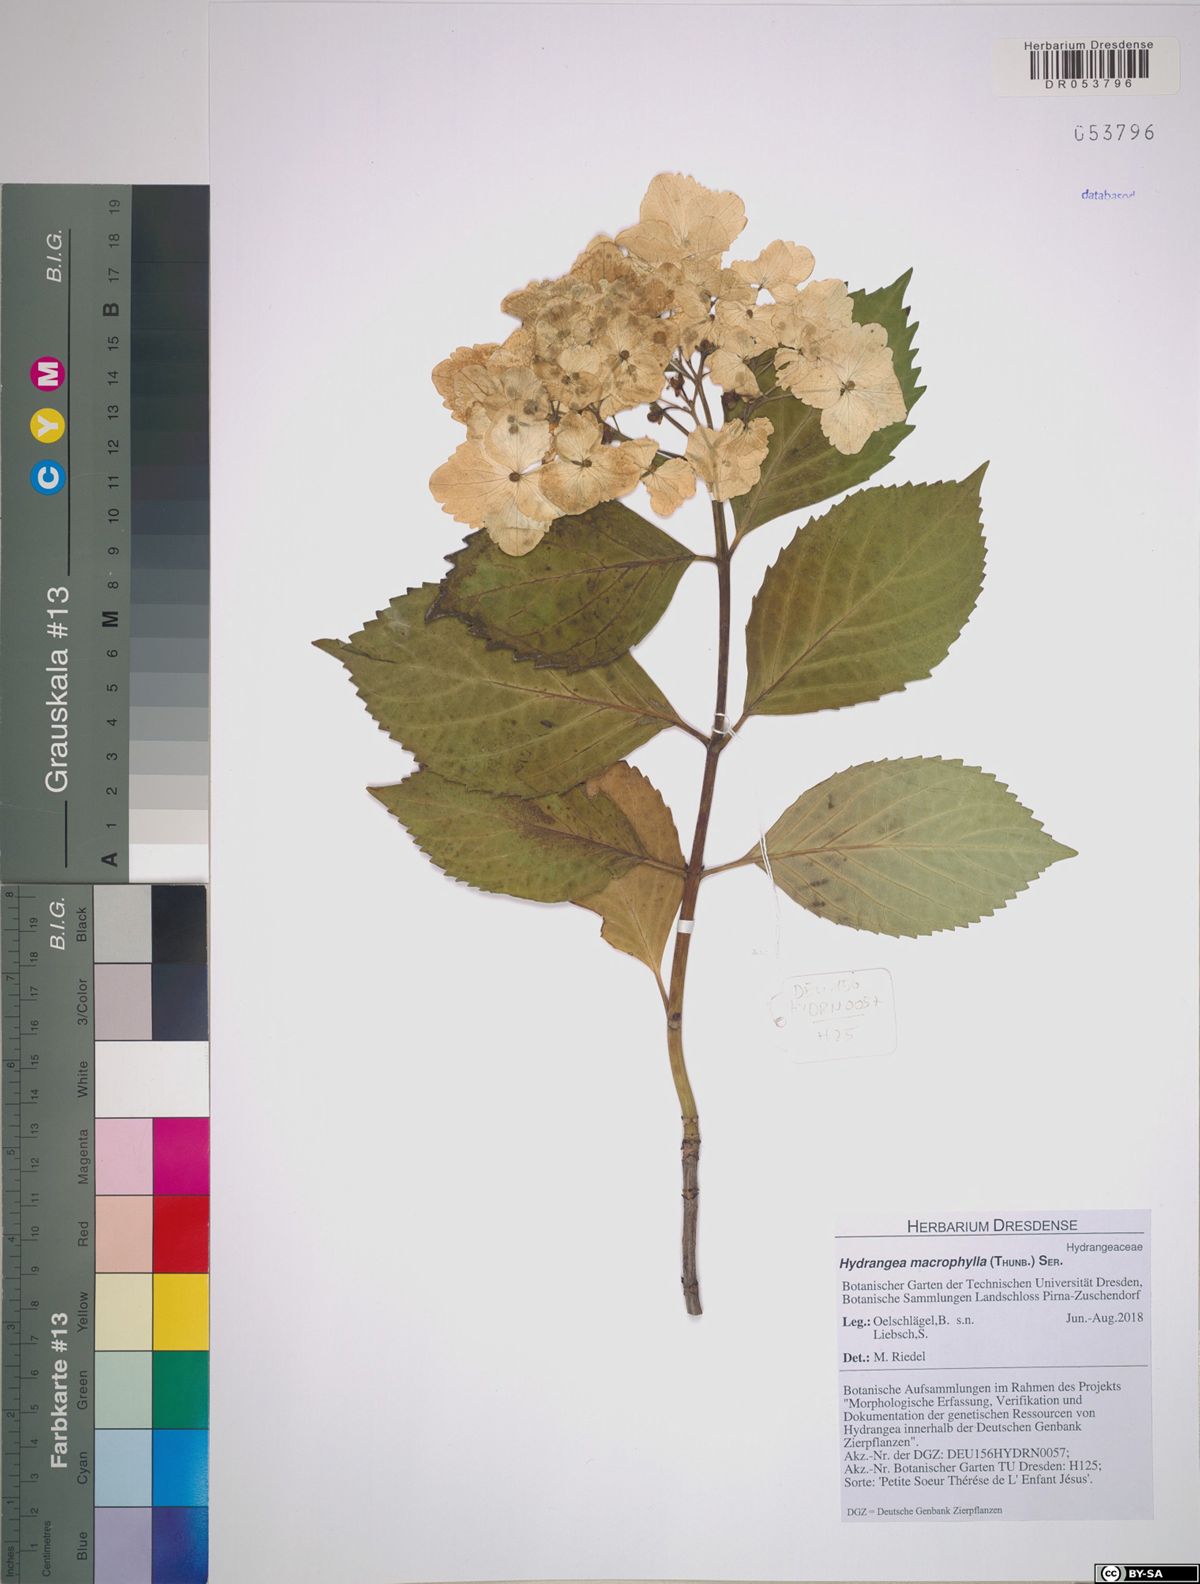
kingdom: Plantae
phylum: Tracheophyta
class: Magnoliopsida
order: Cornales
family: Hydrangeaceae
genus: Hydrangea
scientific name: Hydrangea macrophylla
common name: Hydrangea
